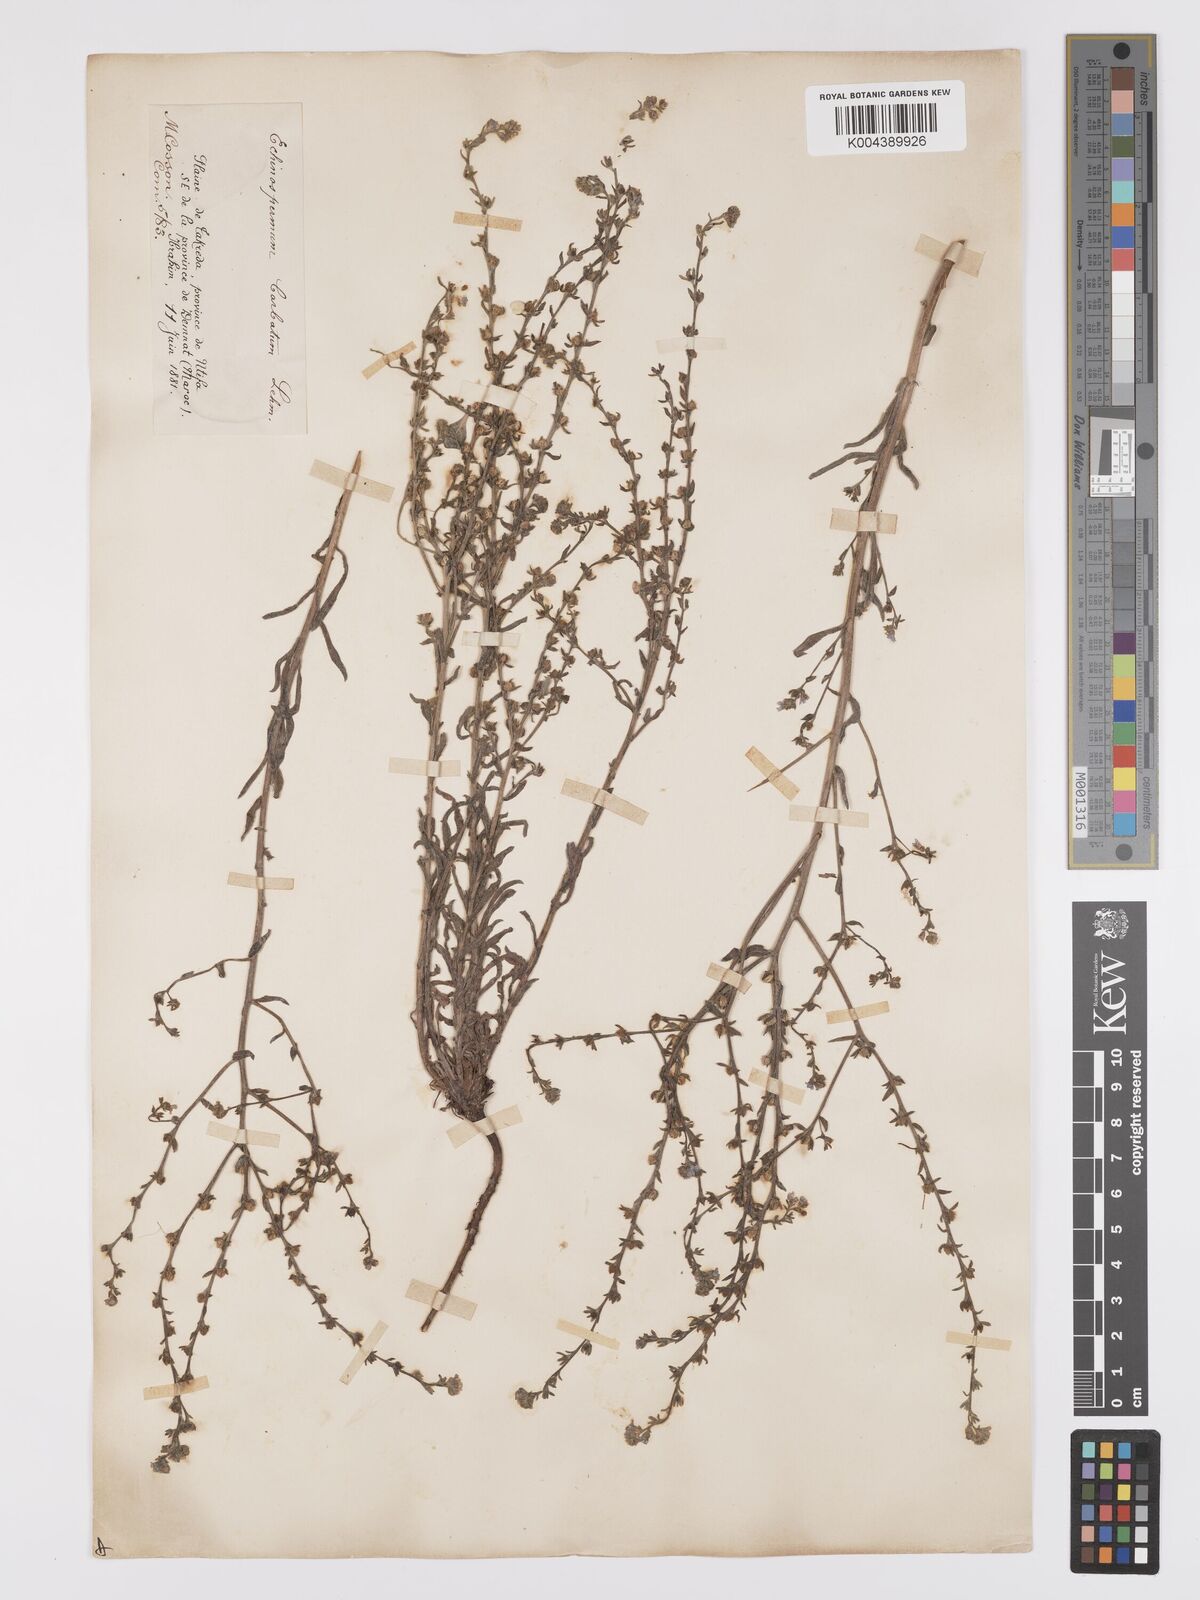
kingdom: Plantae
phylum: Tracheophyta
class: Magnoliopsida
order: Boraginales
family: Boraginaceae
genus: Lappula
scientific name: Lappula barbata
